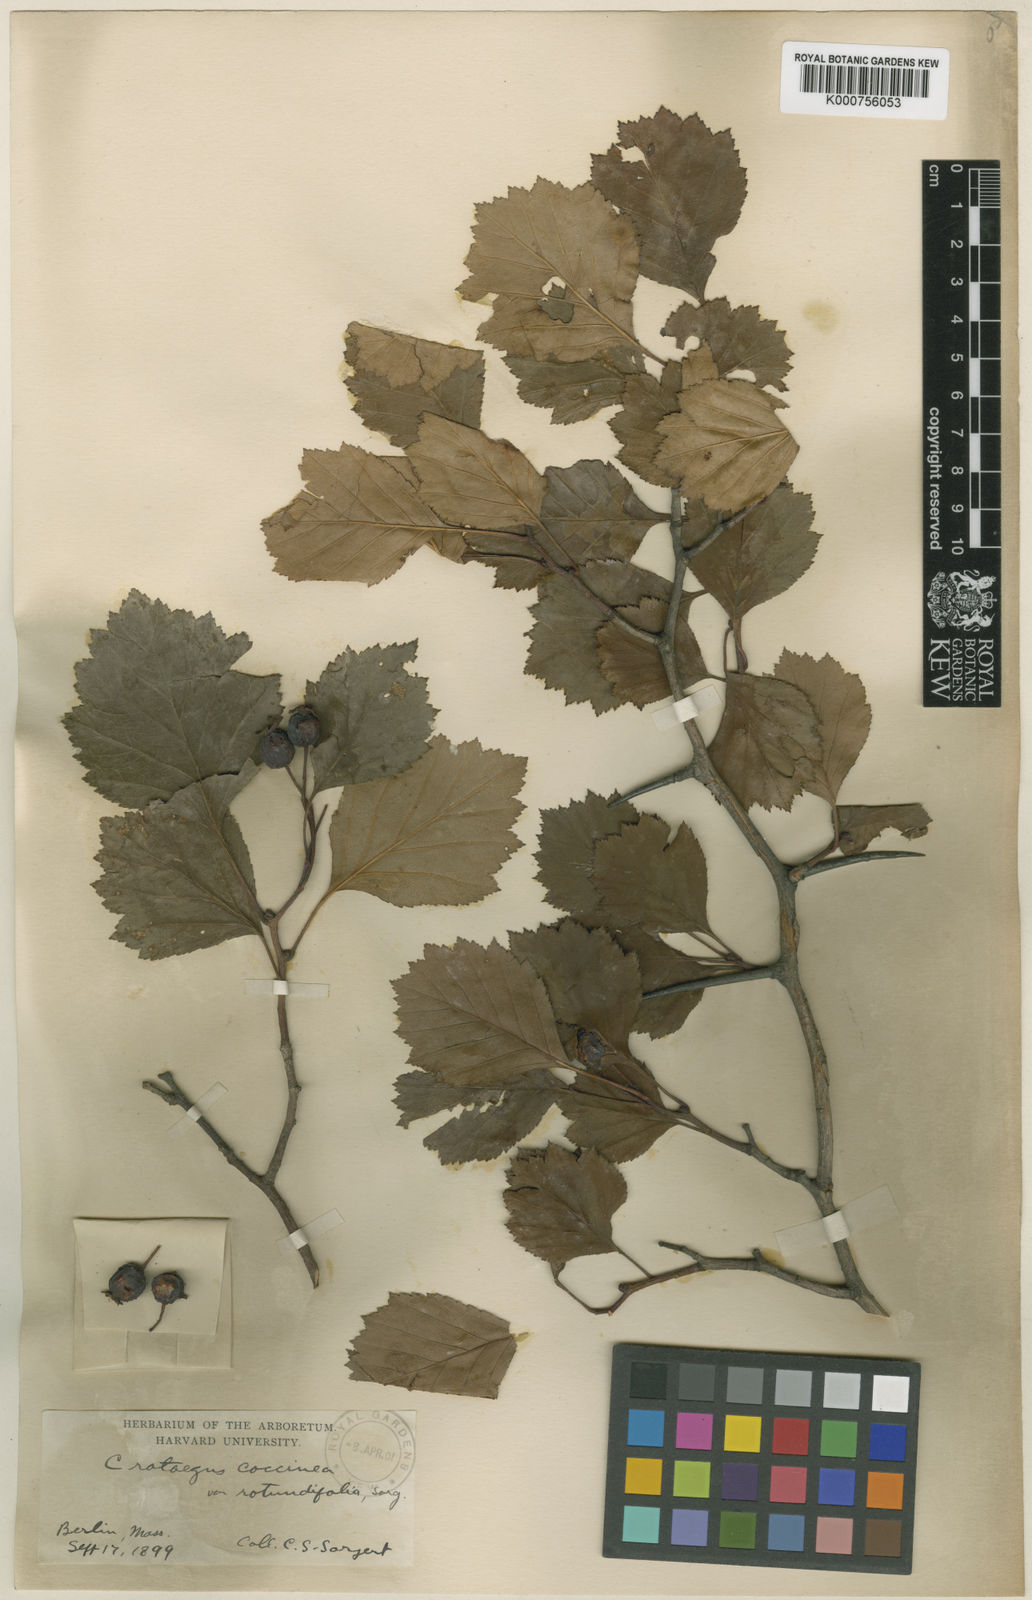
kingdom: Plantae
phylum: Tracheophyta
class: Magnoliopsida
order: Rosales
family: Rosaceae
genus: Crataegus
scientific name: Crataegus chrysocarpa
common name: Fire-berry hawthorn
